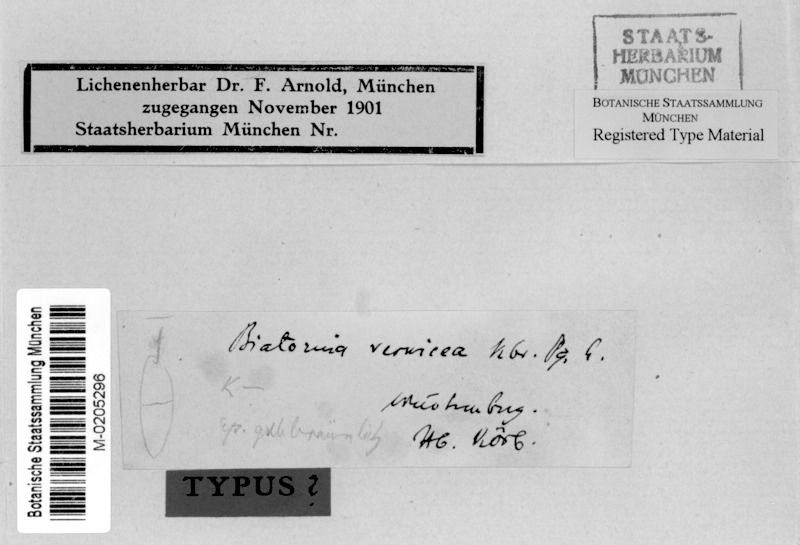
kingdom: Fungi
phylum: Ascomycota
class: Lecanoromycetes
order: Lecanorales
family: Catillariaceae
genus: Catillaria
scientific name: Catillaria vernicea
